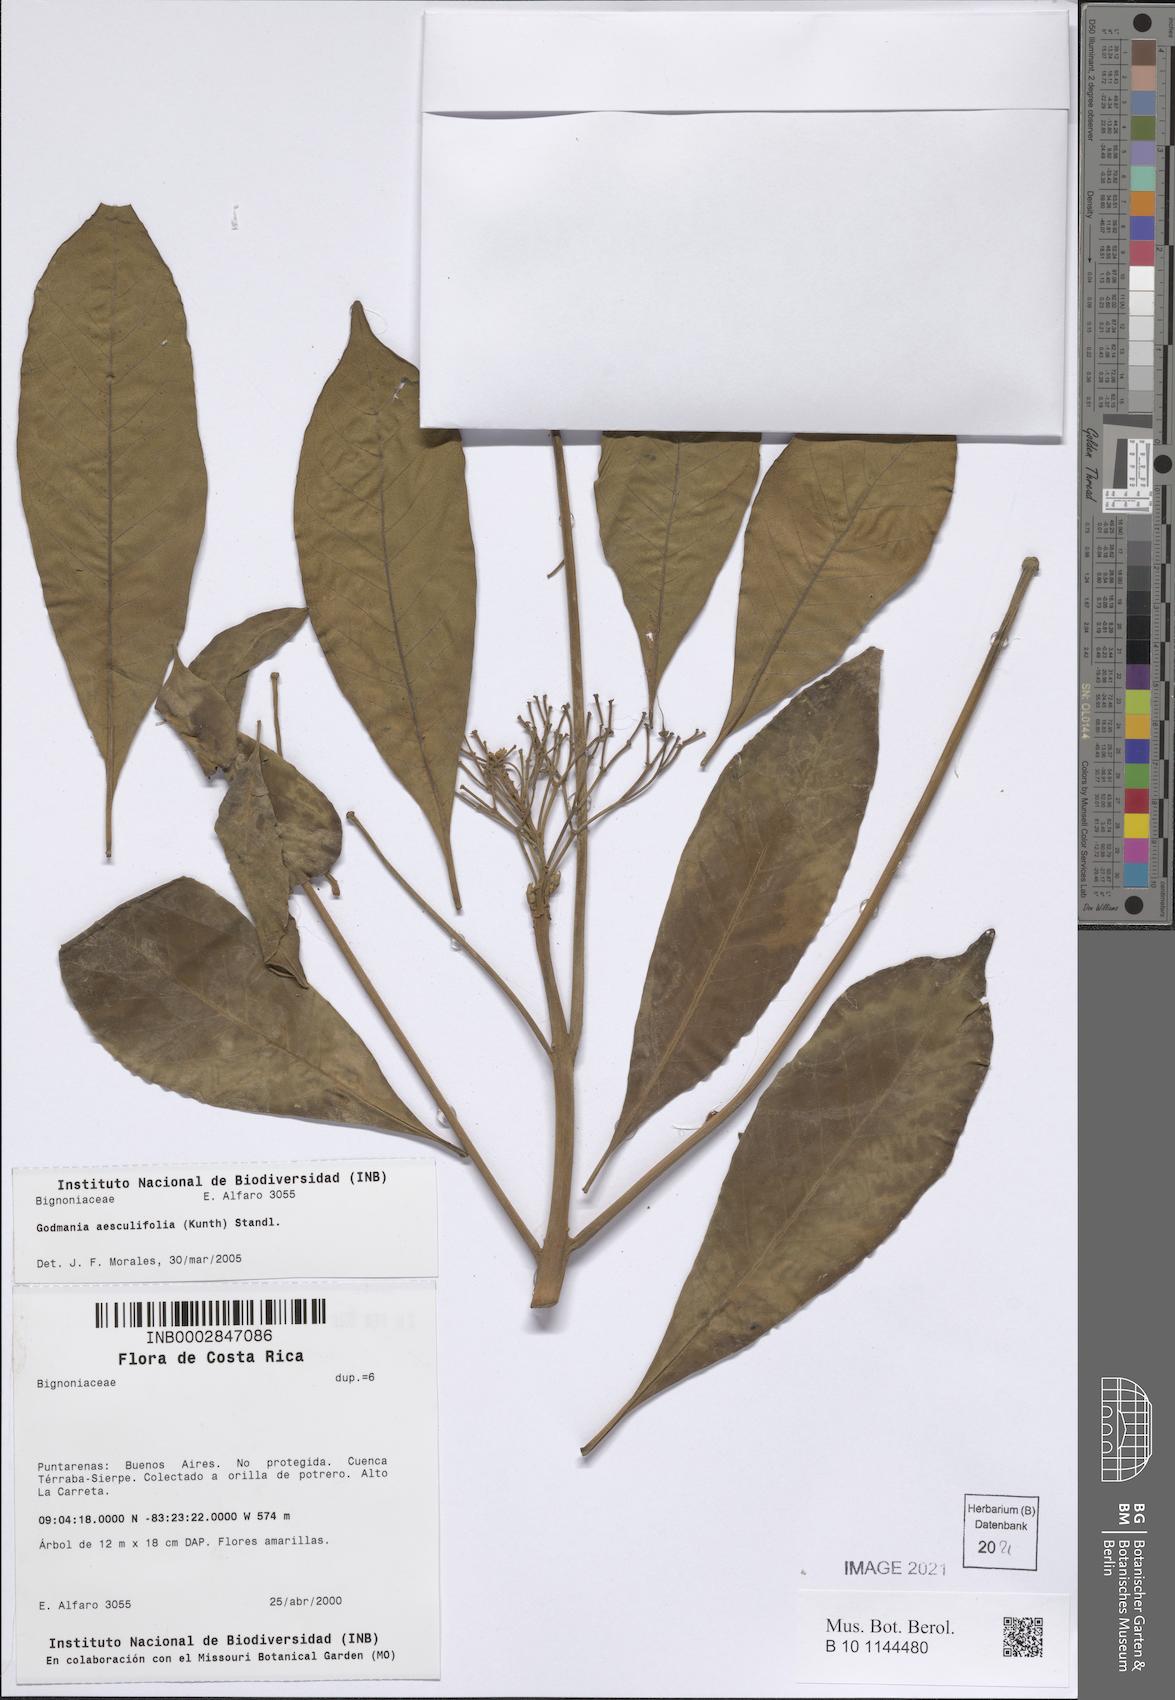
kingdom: Plantae
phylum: Tracheophyta
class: Magnoliopsida
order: Lamiales
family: Bignoniaceae
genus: Godmania
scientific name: Godmania aesculifolia
